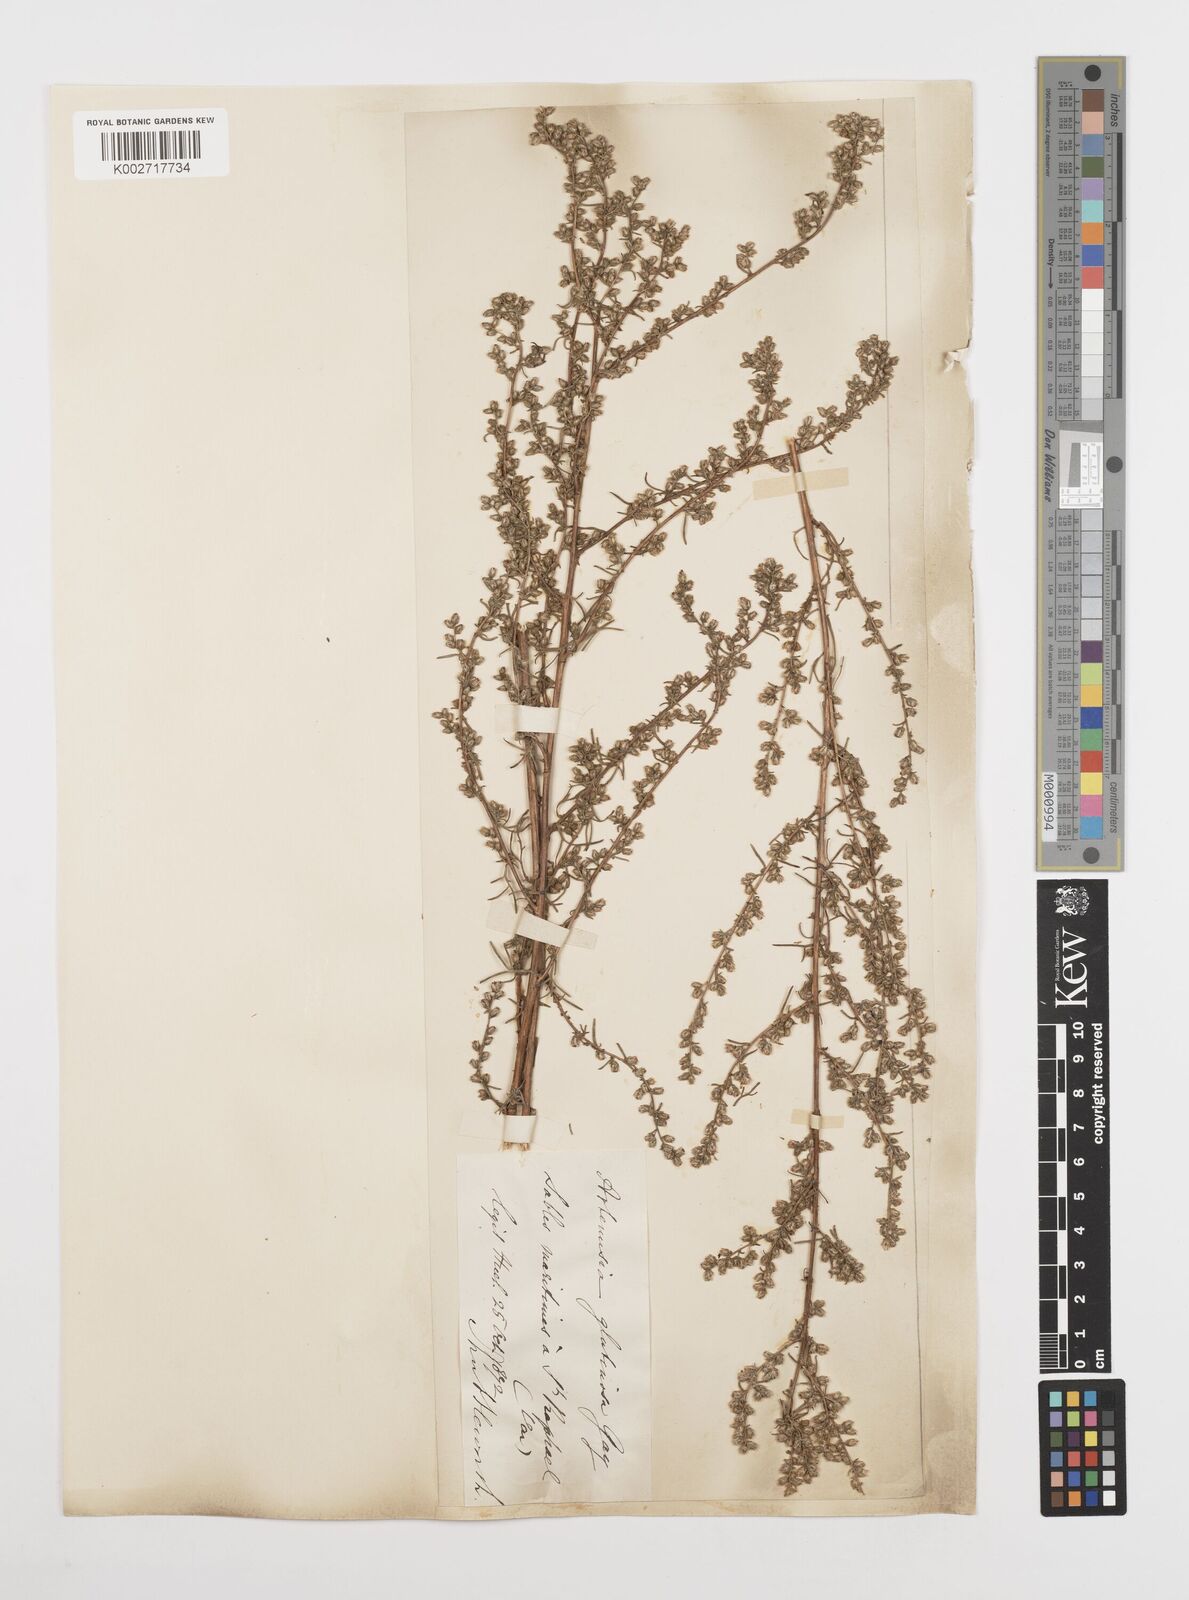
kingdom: Plantae
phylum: Tracheophyta
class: Magnoliopsida
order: Asterales
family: Asteraceae
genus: Artemisia
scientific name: Artemisia campestris
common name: Field wormwood
